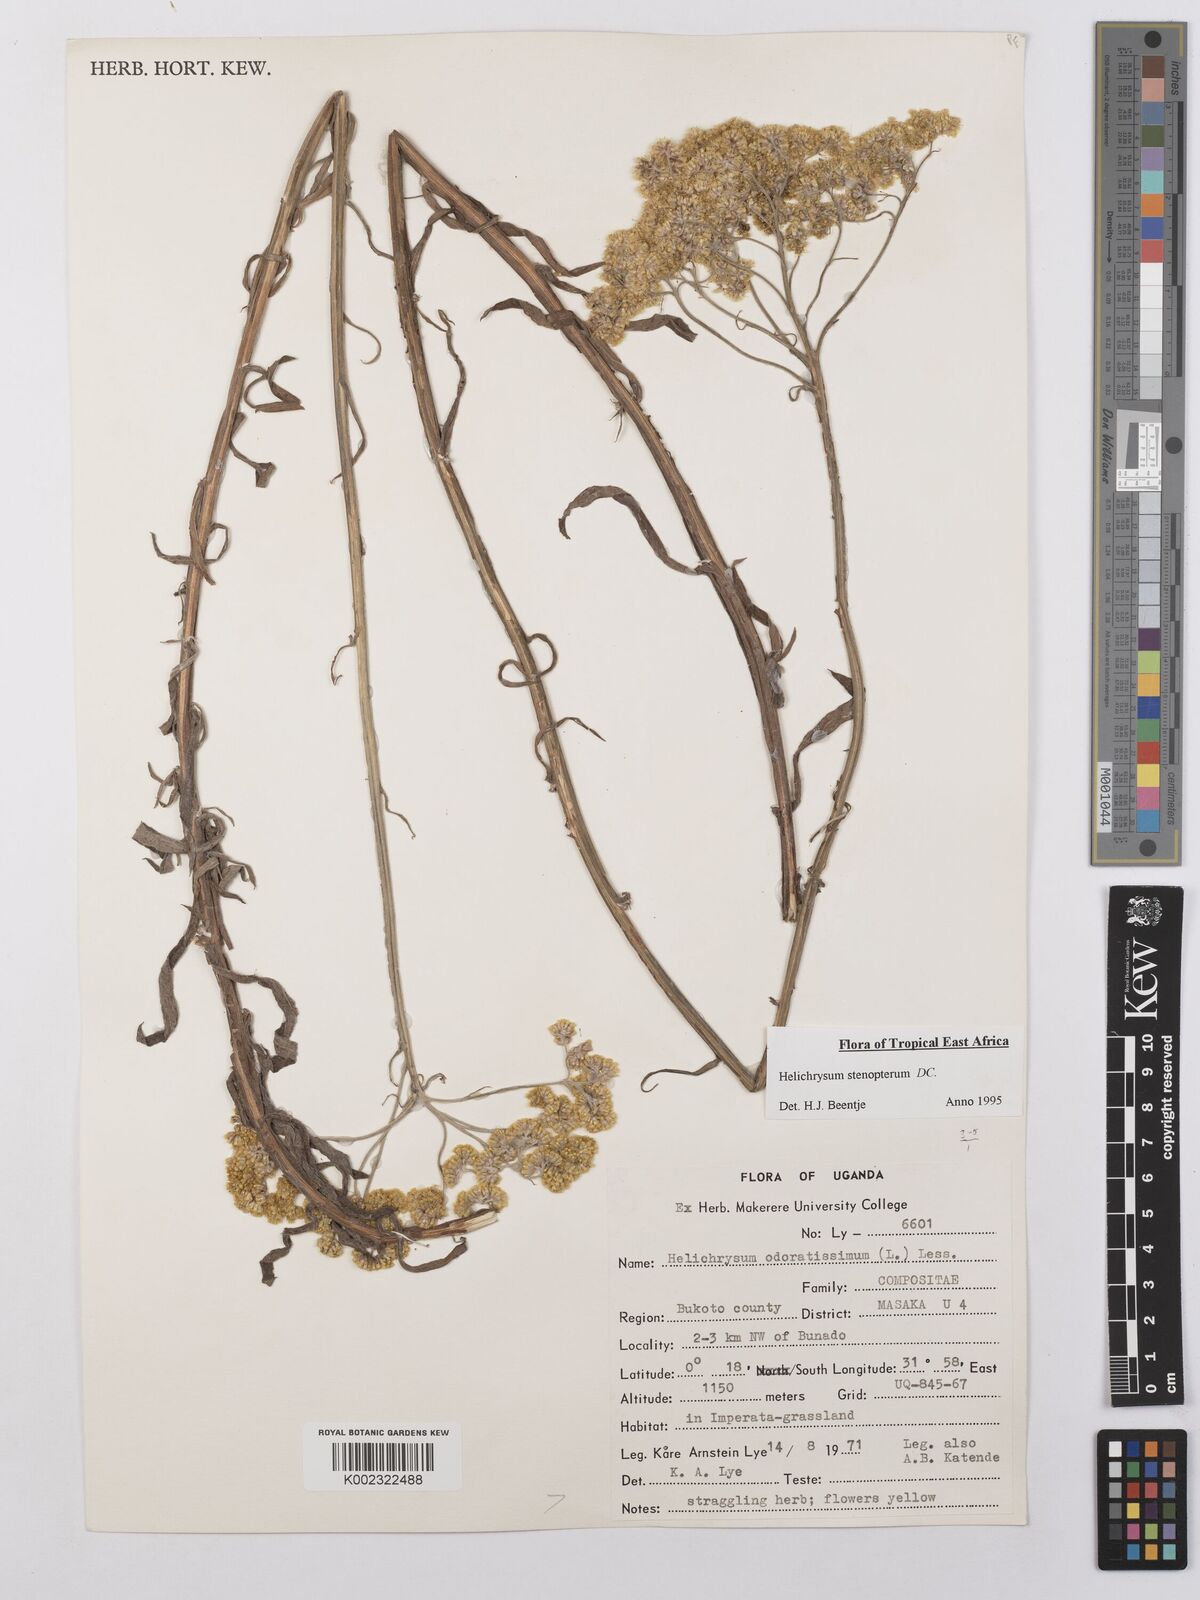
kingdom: Plantae
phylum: Tracheophyta
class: Magnoliopsida
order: Asterales
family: Asteraceae
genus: Helichrysum
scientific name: Helichrysum stenopterum
